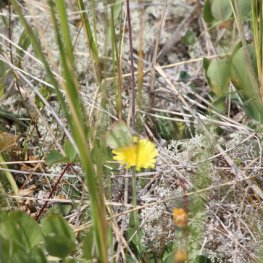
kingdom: Animalia
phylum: Arthropoda
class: Insecta
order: Lepidoptera
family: Pieridae
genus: Colias
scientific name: Colias interior
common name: Pink-edged Sulphur
